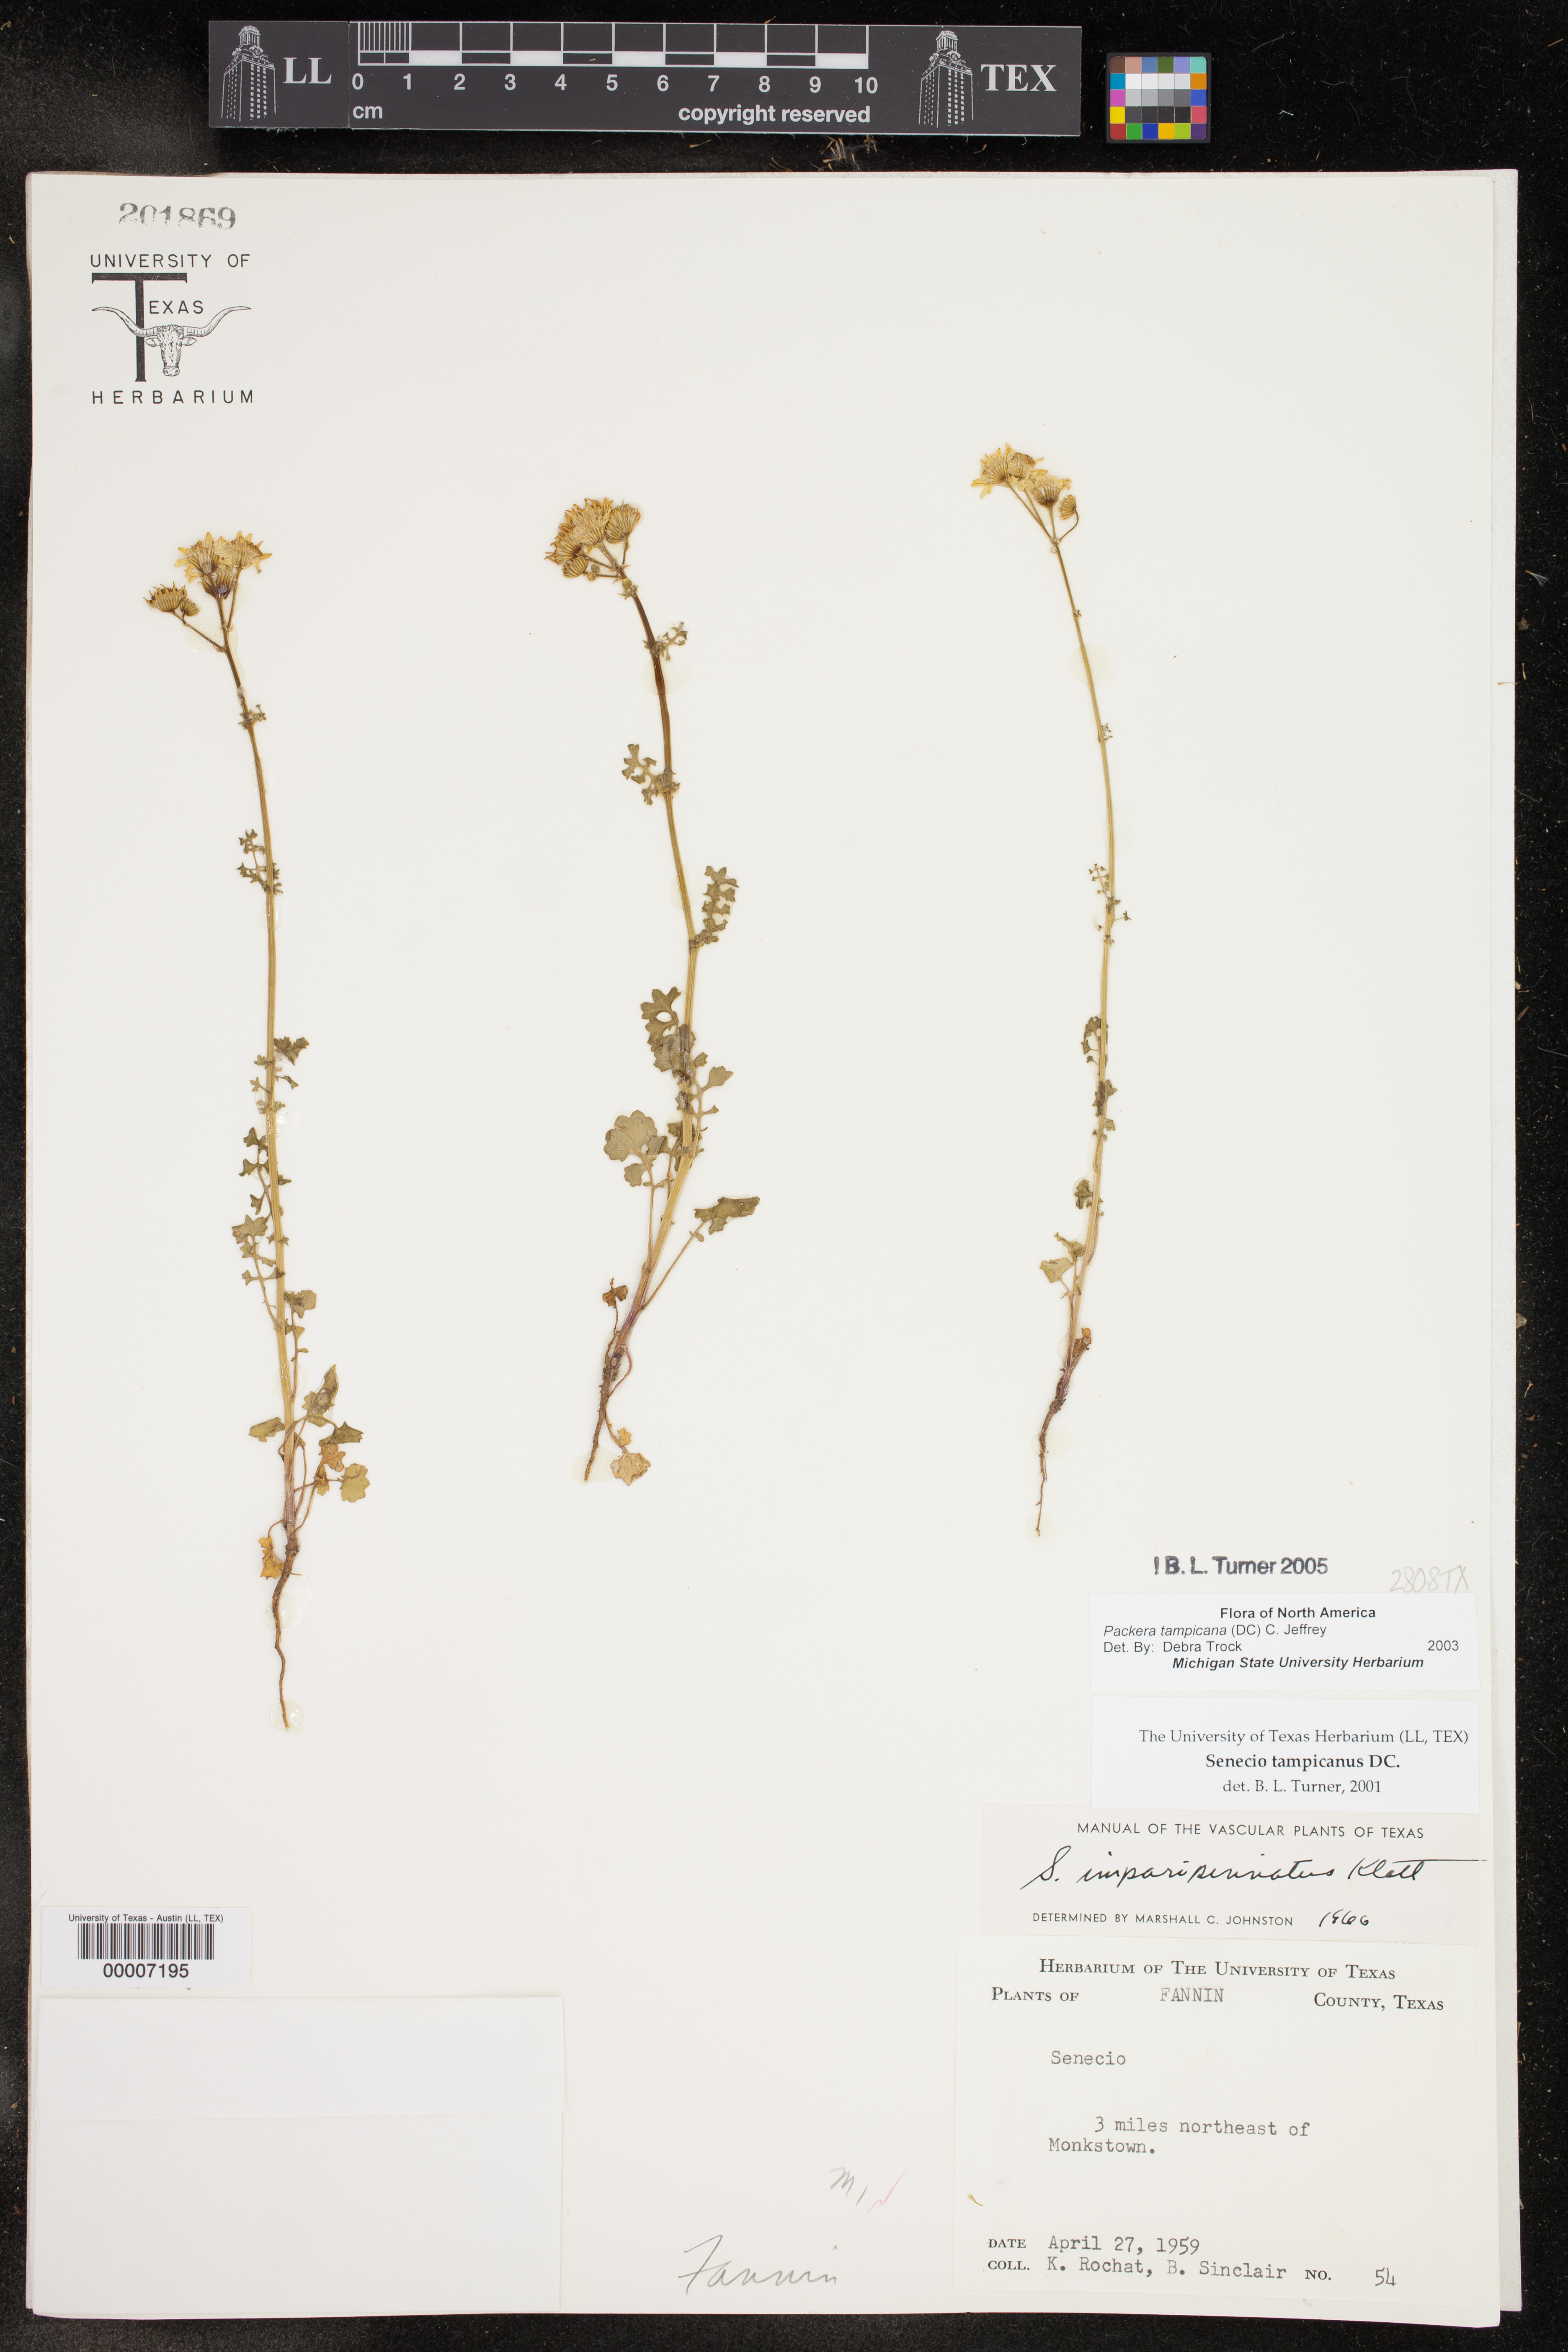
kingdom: Plantae
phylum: Tracheophyta
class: Magnoliopsida
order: Asterales
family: Asteraceae
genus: Packera
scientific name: Packera tampicana
